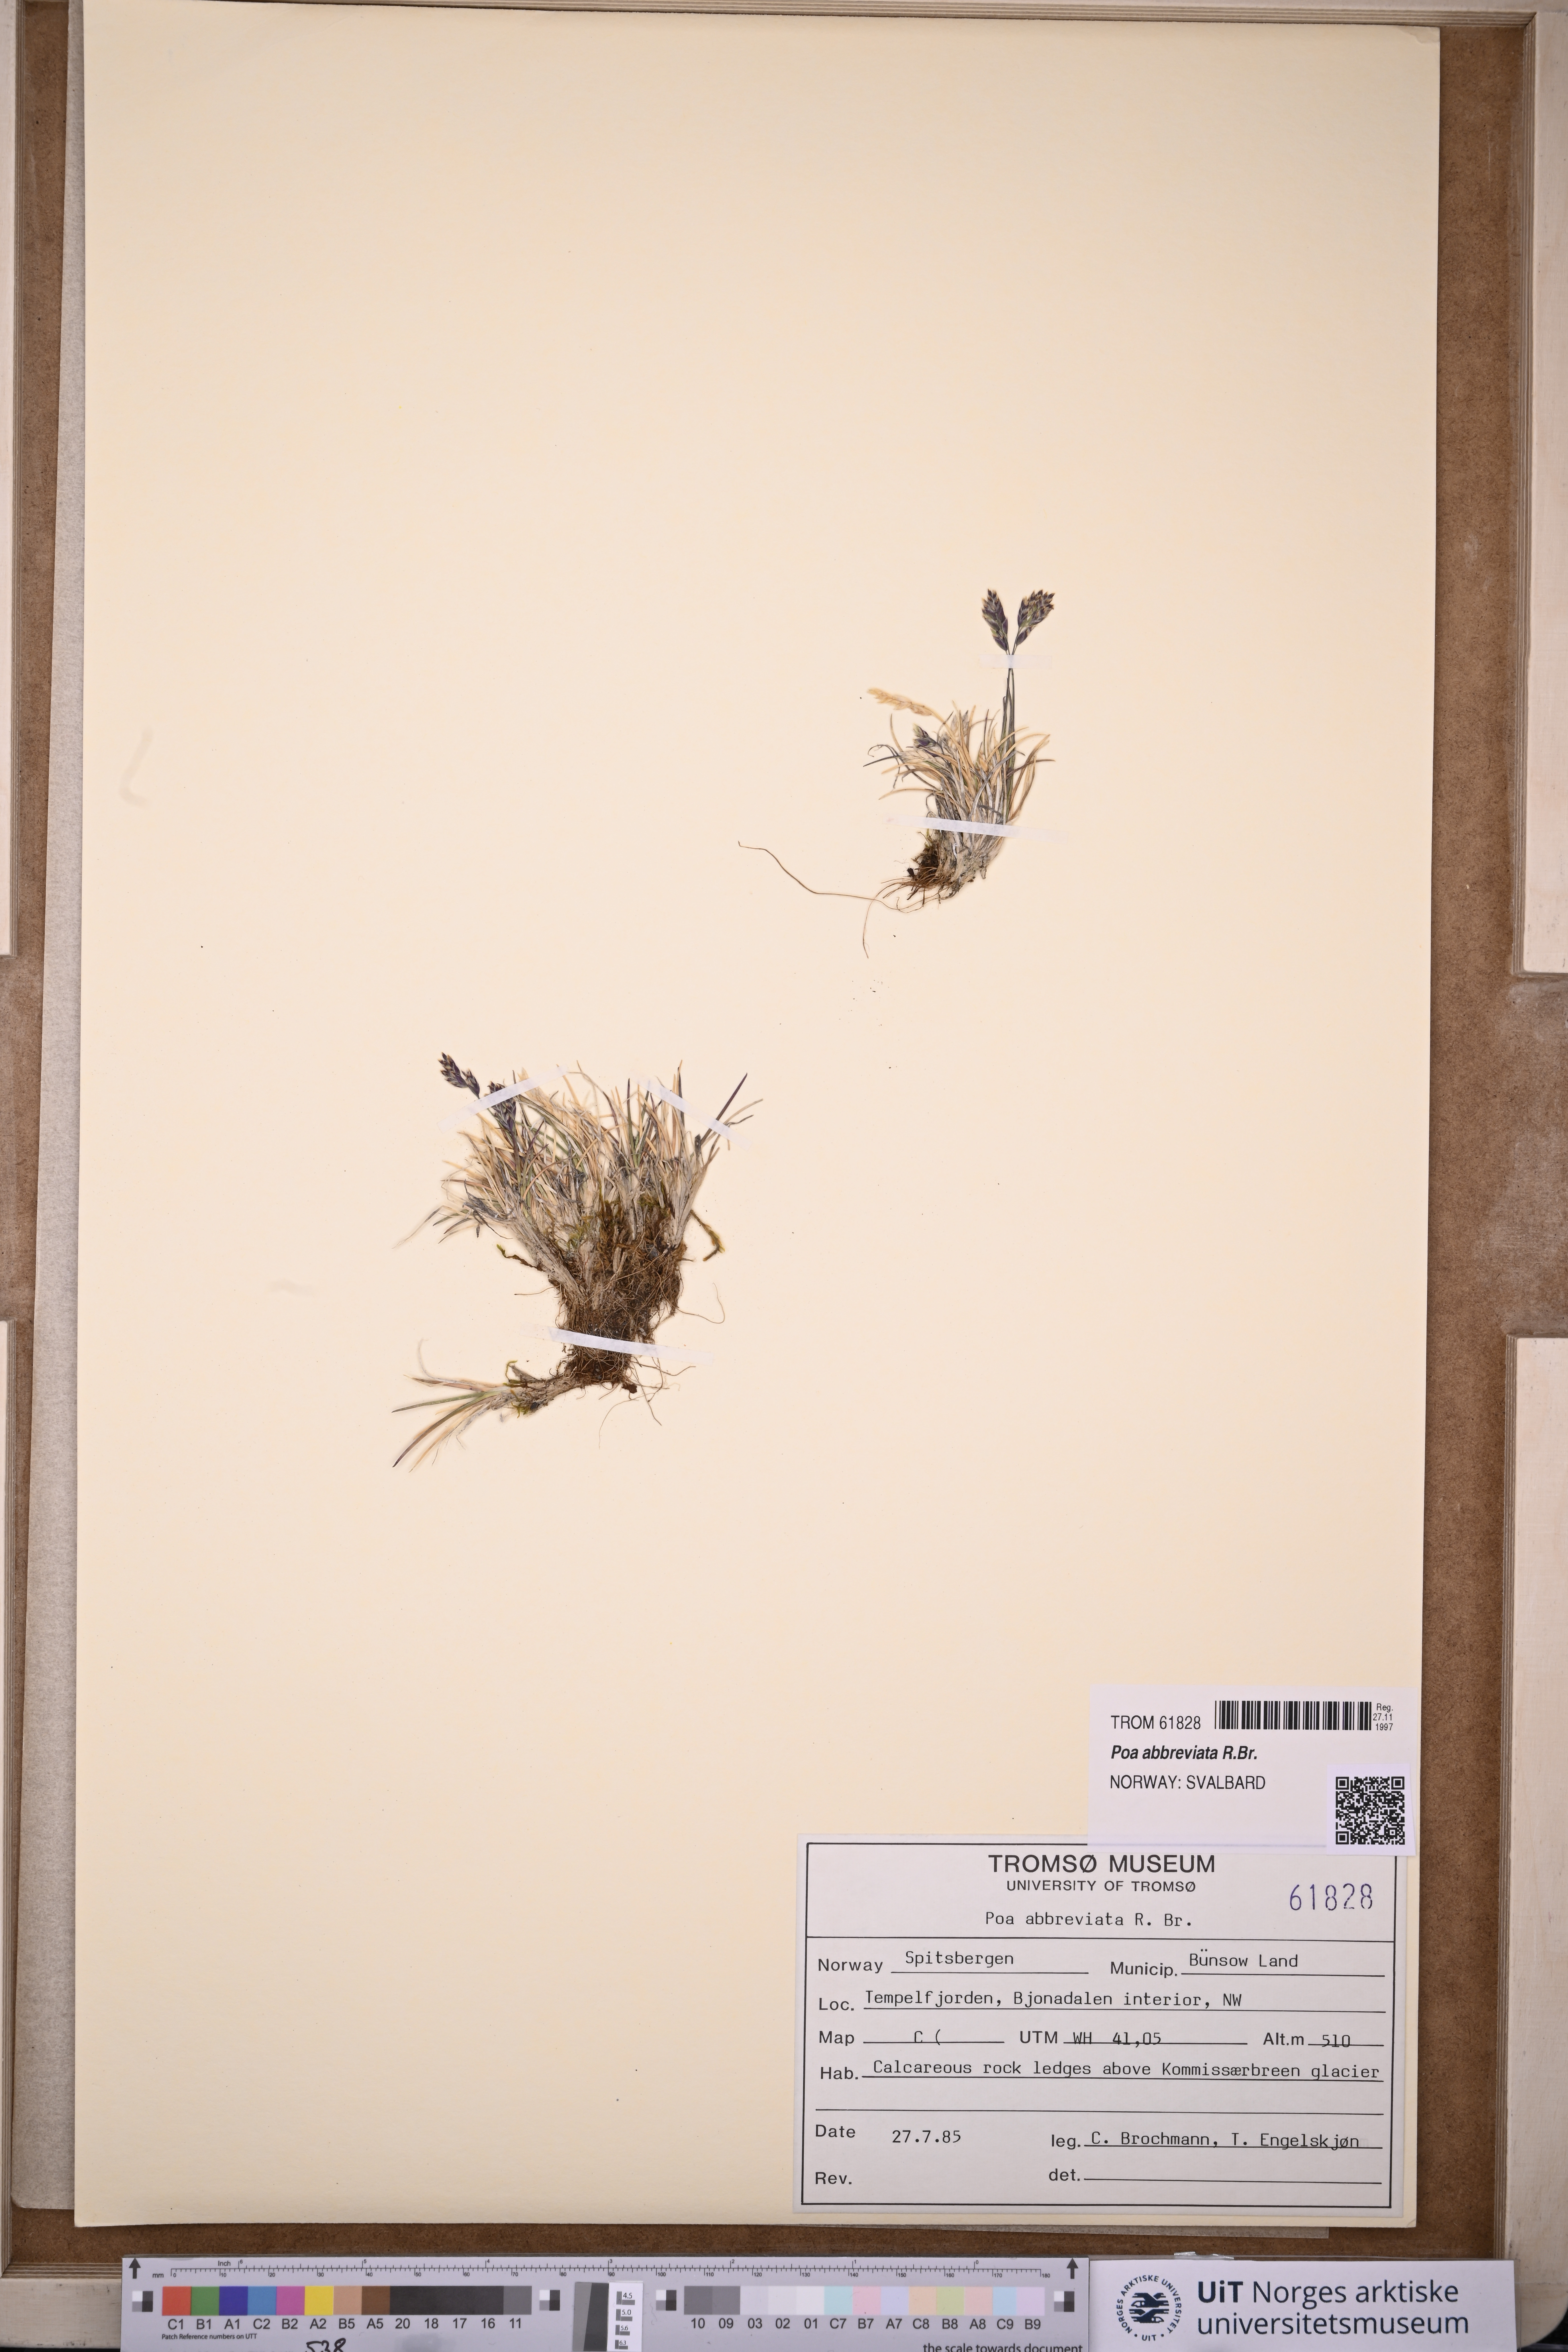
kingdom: Plantae
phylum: Tracheophyta
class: Liliopsida
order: Poales
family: Poaceae
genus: Poa
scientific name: Poa abbreviata
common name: Abbreviated bluegrass
